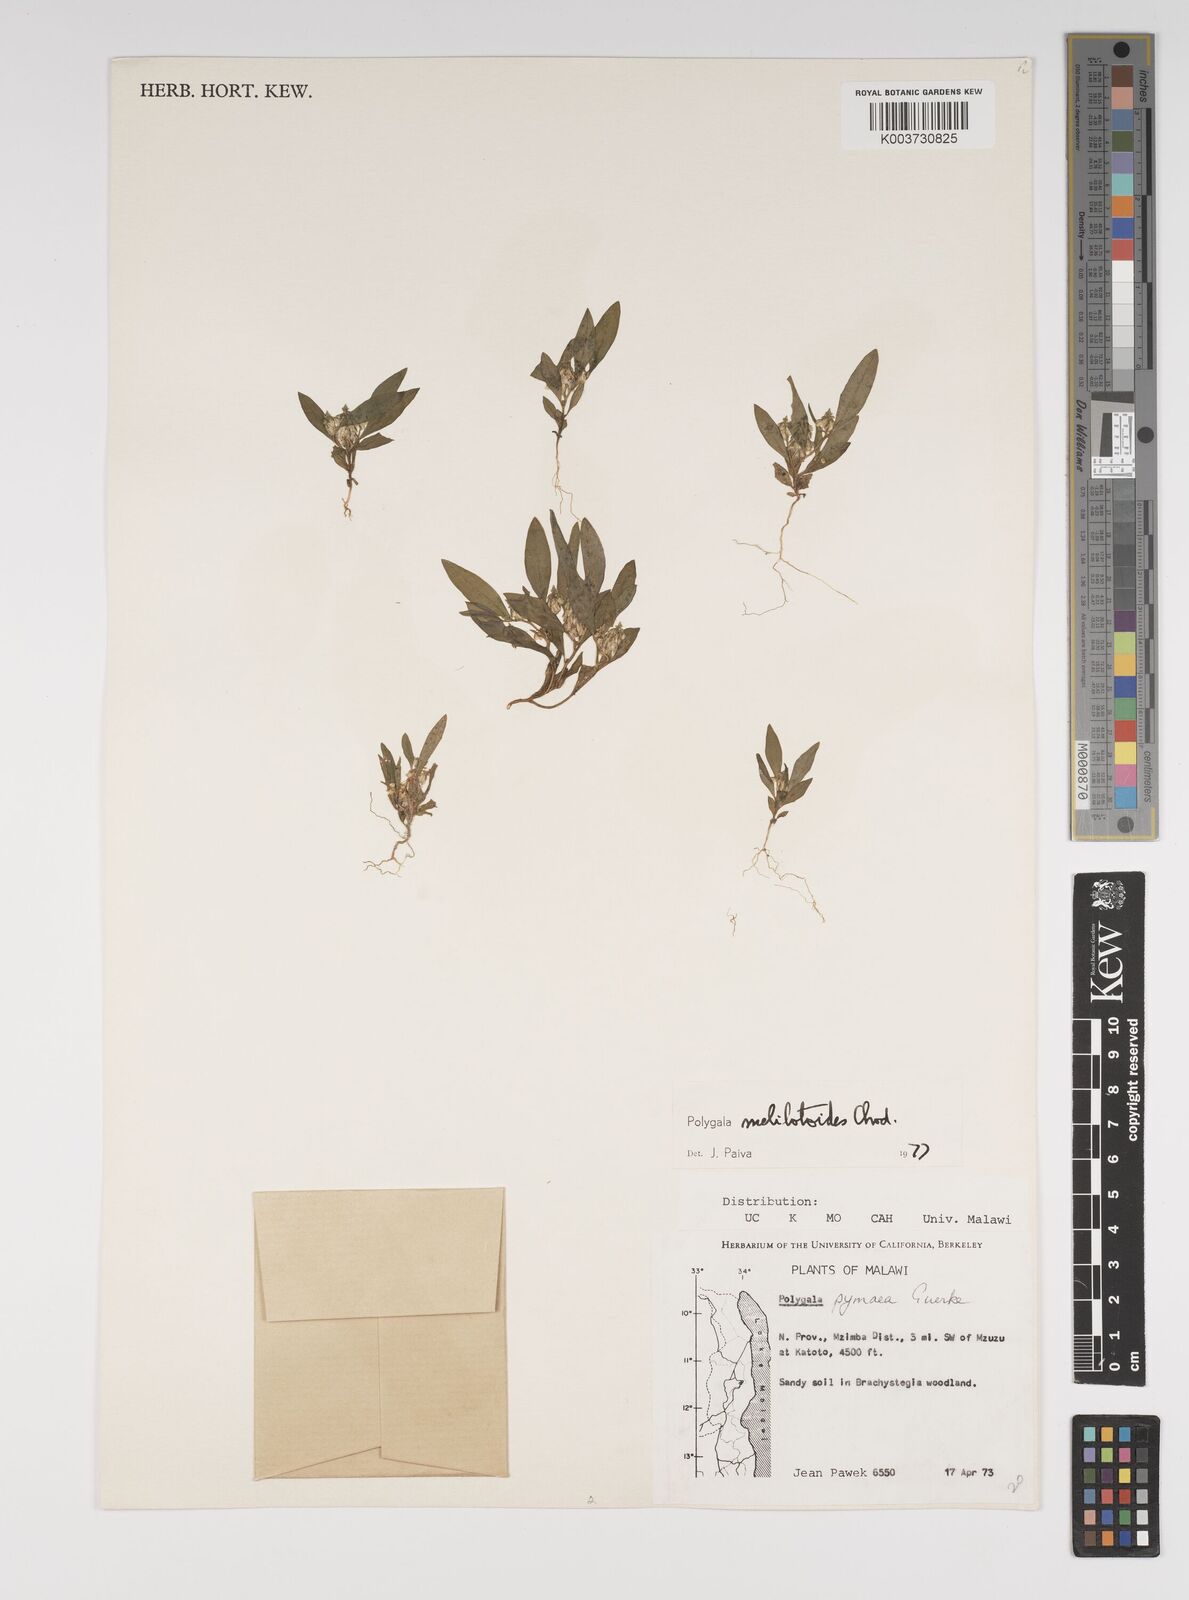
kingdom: Plantae
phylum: Tracheophyta
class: Magnoliopsida
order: Fabales
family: Polygalaceae
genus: Polygala
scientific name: Polygala melilotoides
